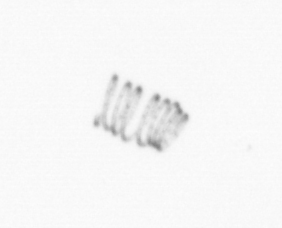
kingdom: Chromista
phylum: Ochrophyta
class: Bacillariophyceae
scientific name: Bacillariophyceae
